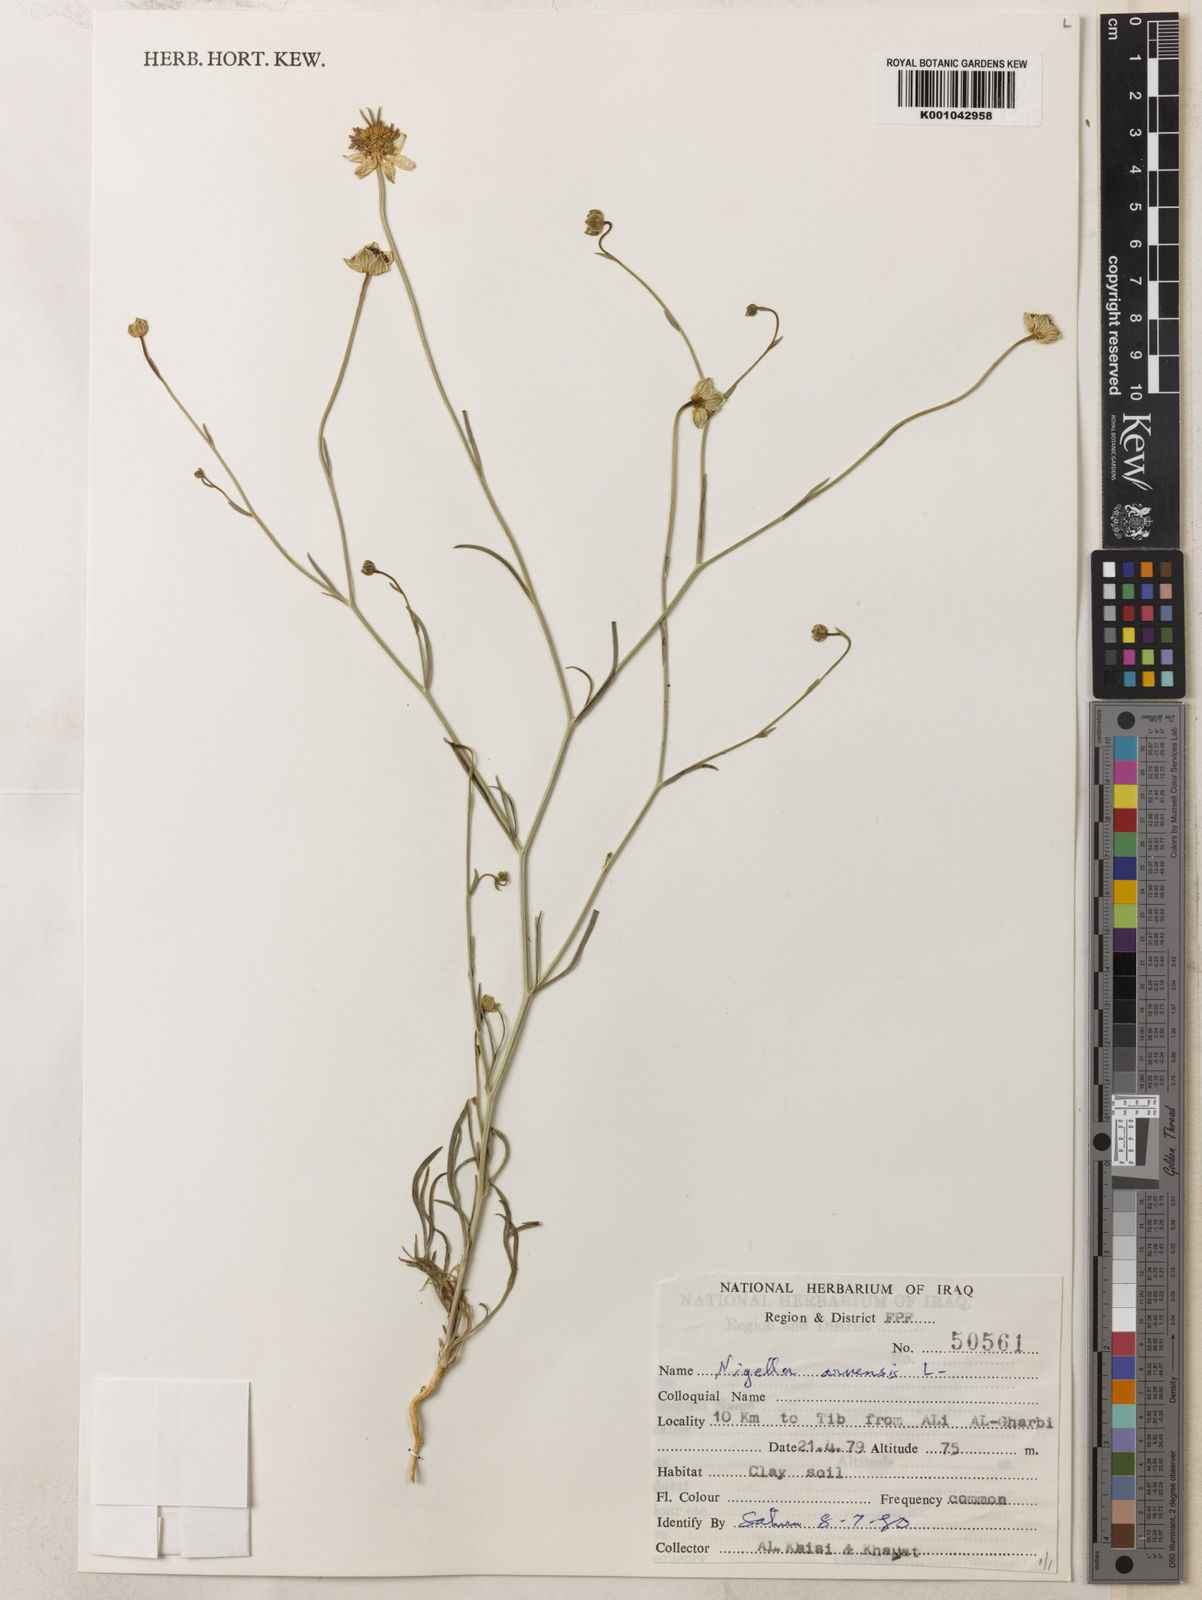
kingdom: Plantae
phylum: Tracheophyta
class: Magnoliopsida
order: Ranunculales
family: Ranunculaceae
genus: Nigella
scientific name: Nigella arvensis
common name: Wild fennel-flower
